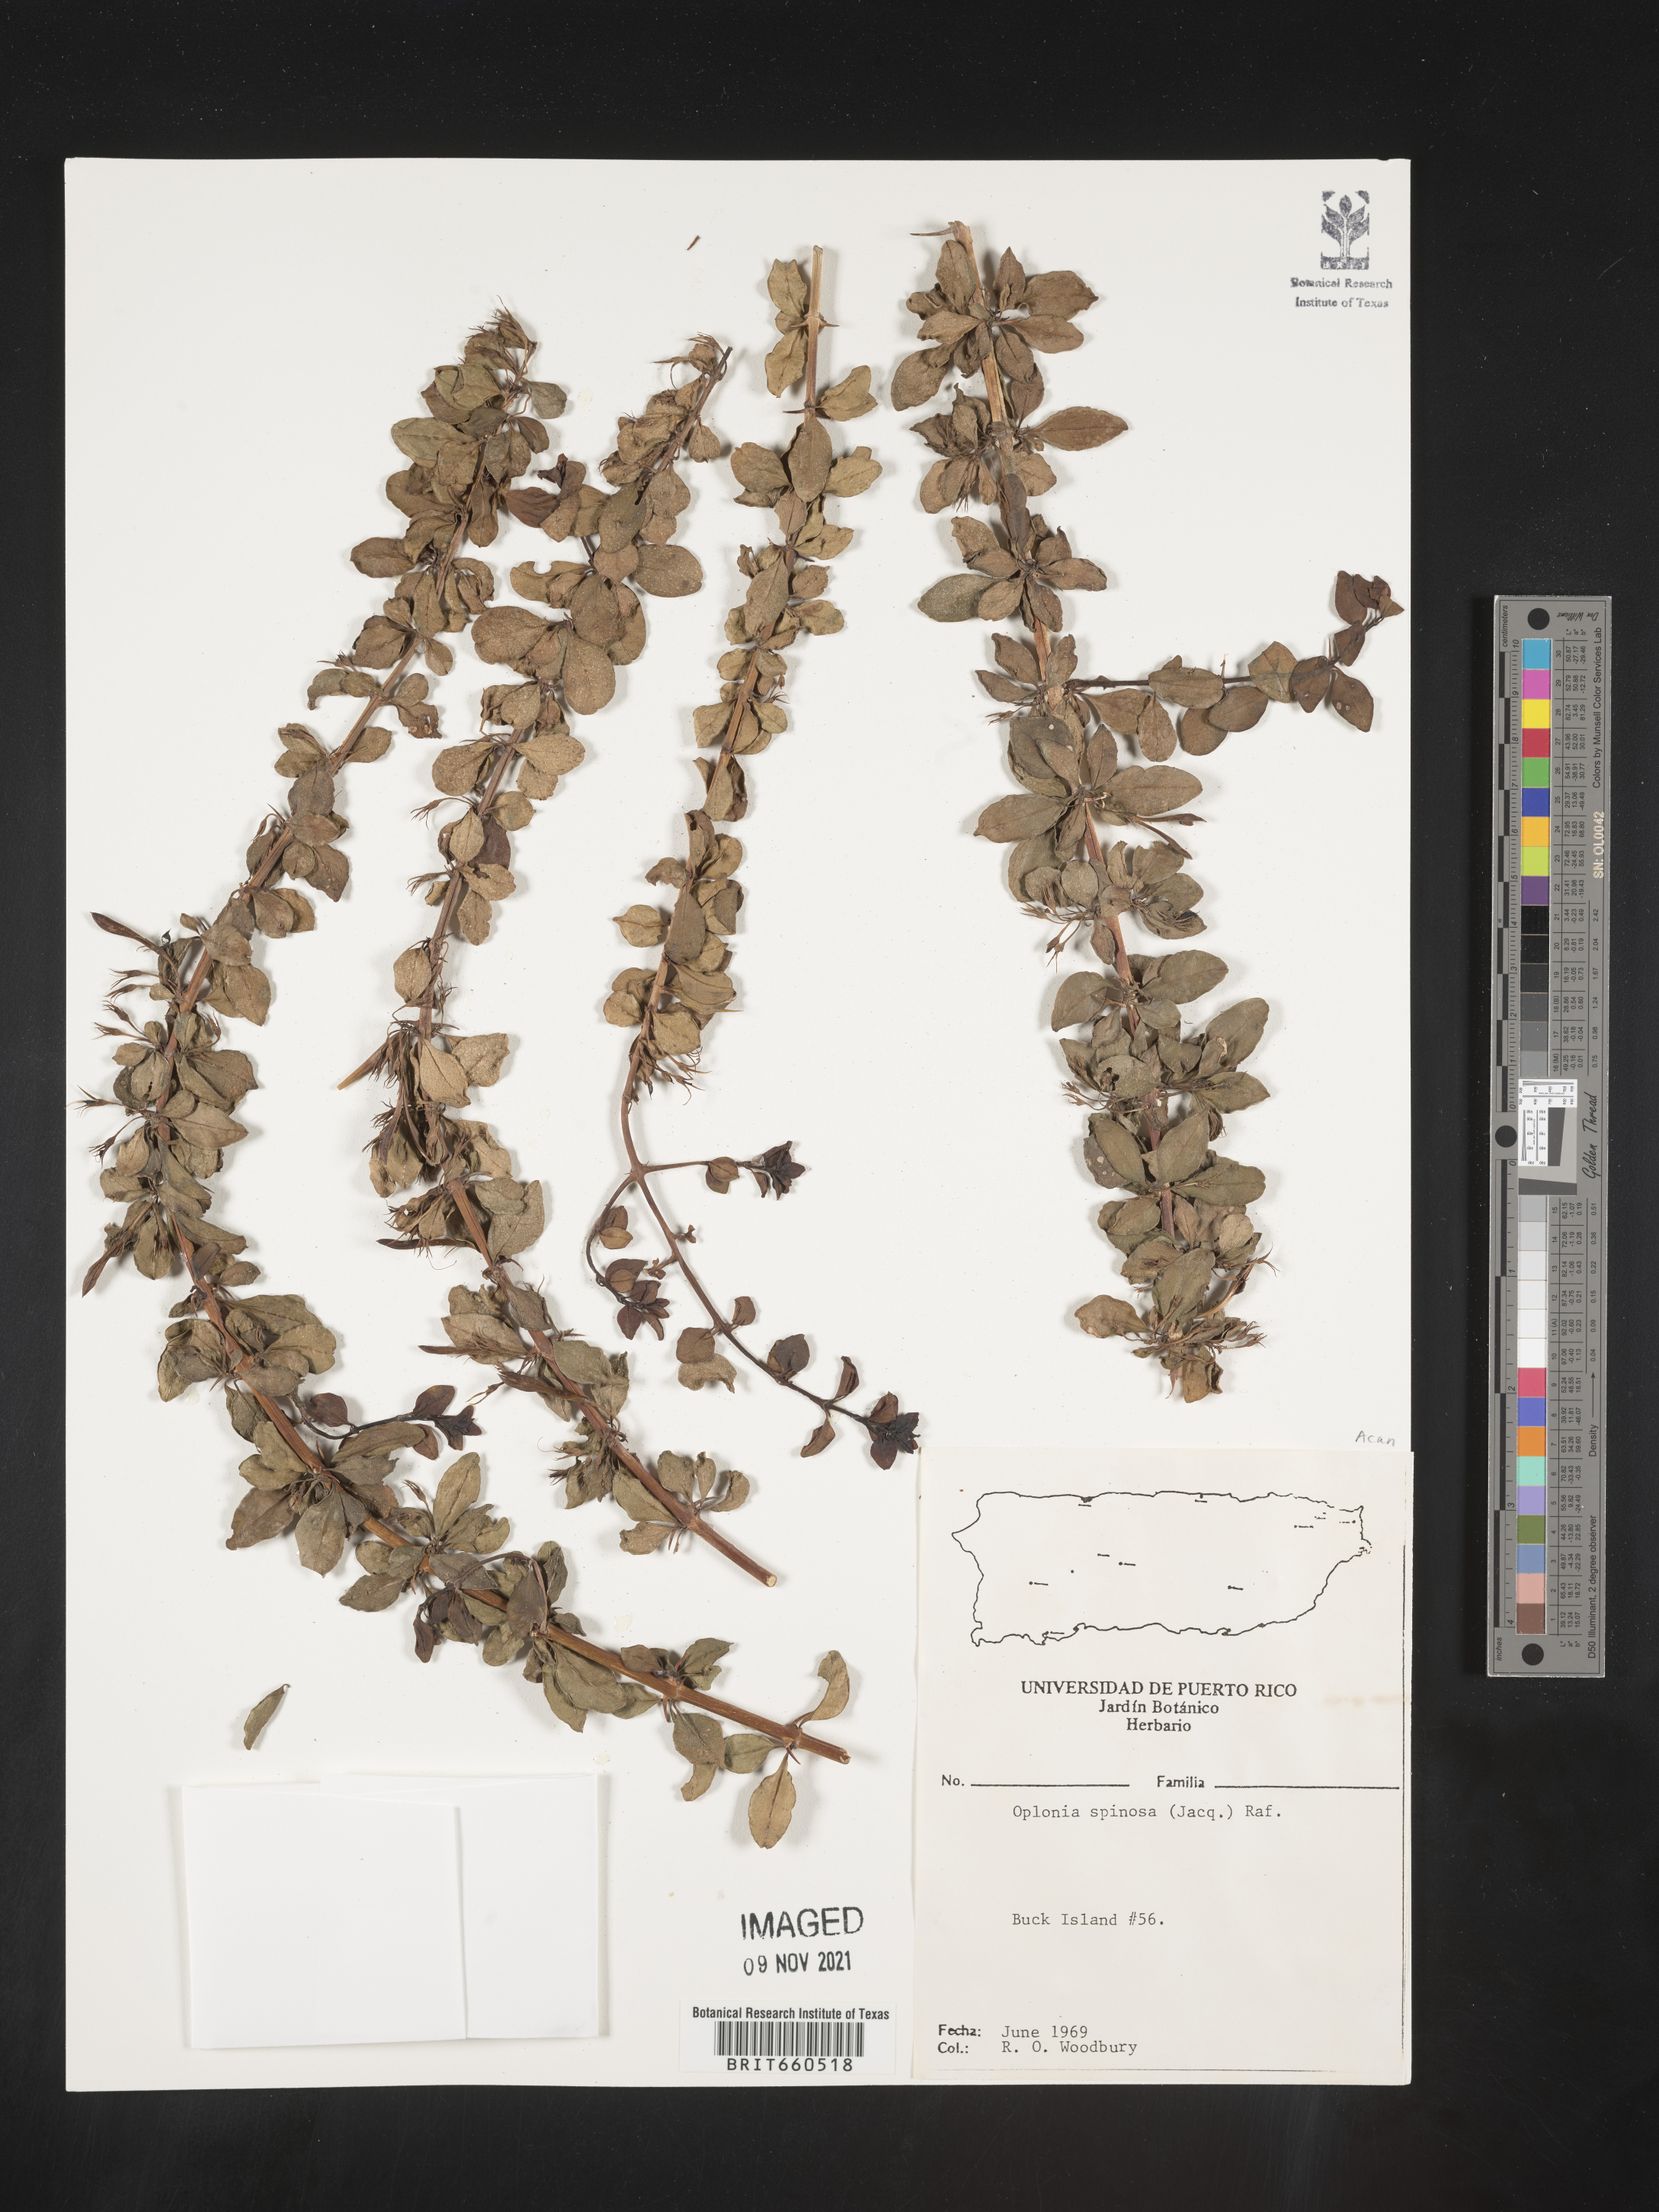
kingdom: Plantae
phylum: Tracheophyta
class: Magnoliopsida
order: Lamiales
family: Acanthaceae
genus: Oplonia
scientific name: Oplonia
